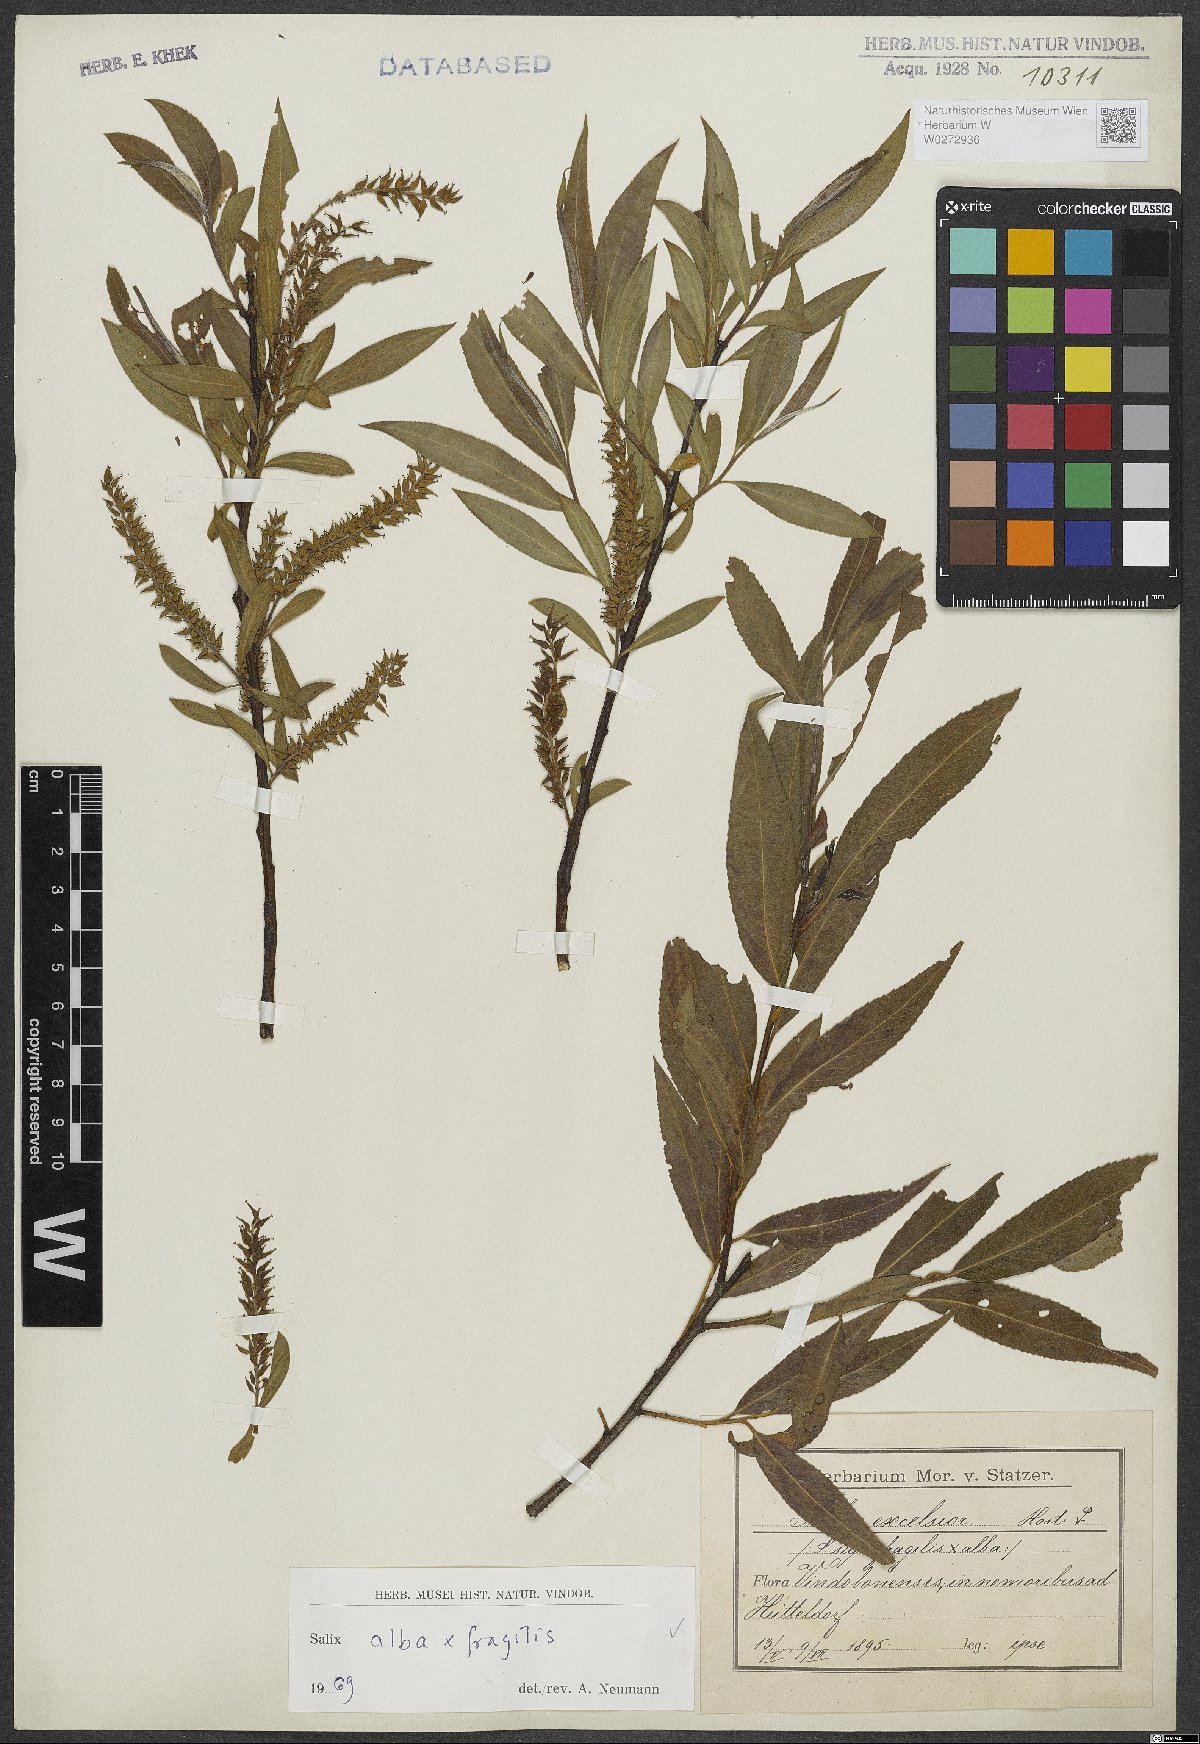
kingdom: Plantae
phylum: Tracheophyta
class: Magnoliopsida
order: Malpighiales
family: Salicaceae
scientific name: Salicaceae
